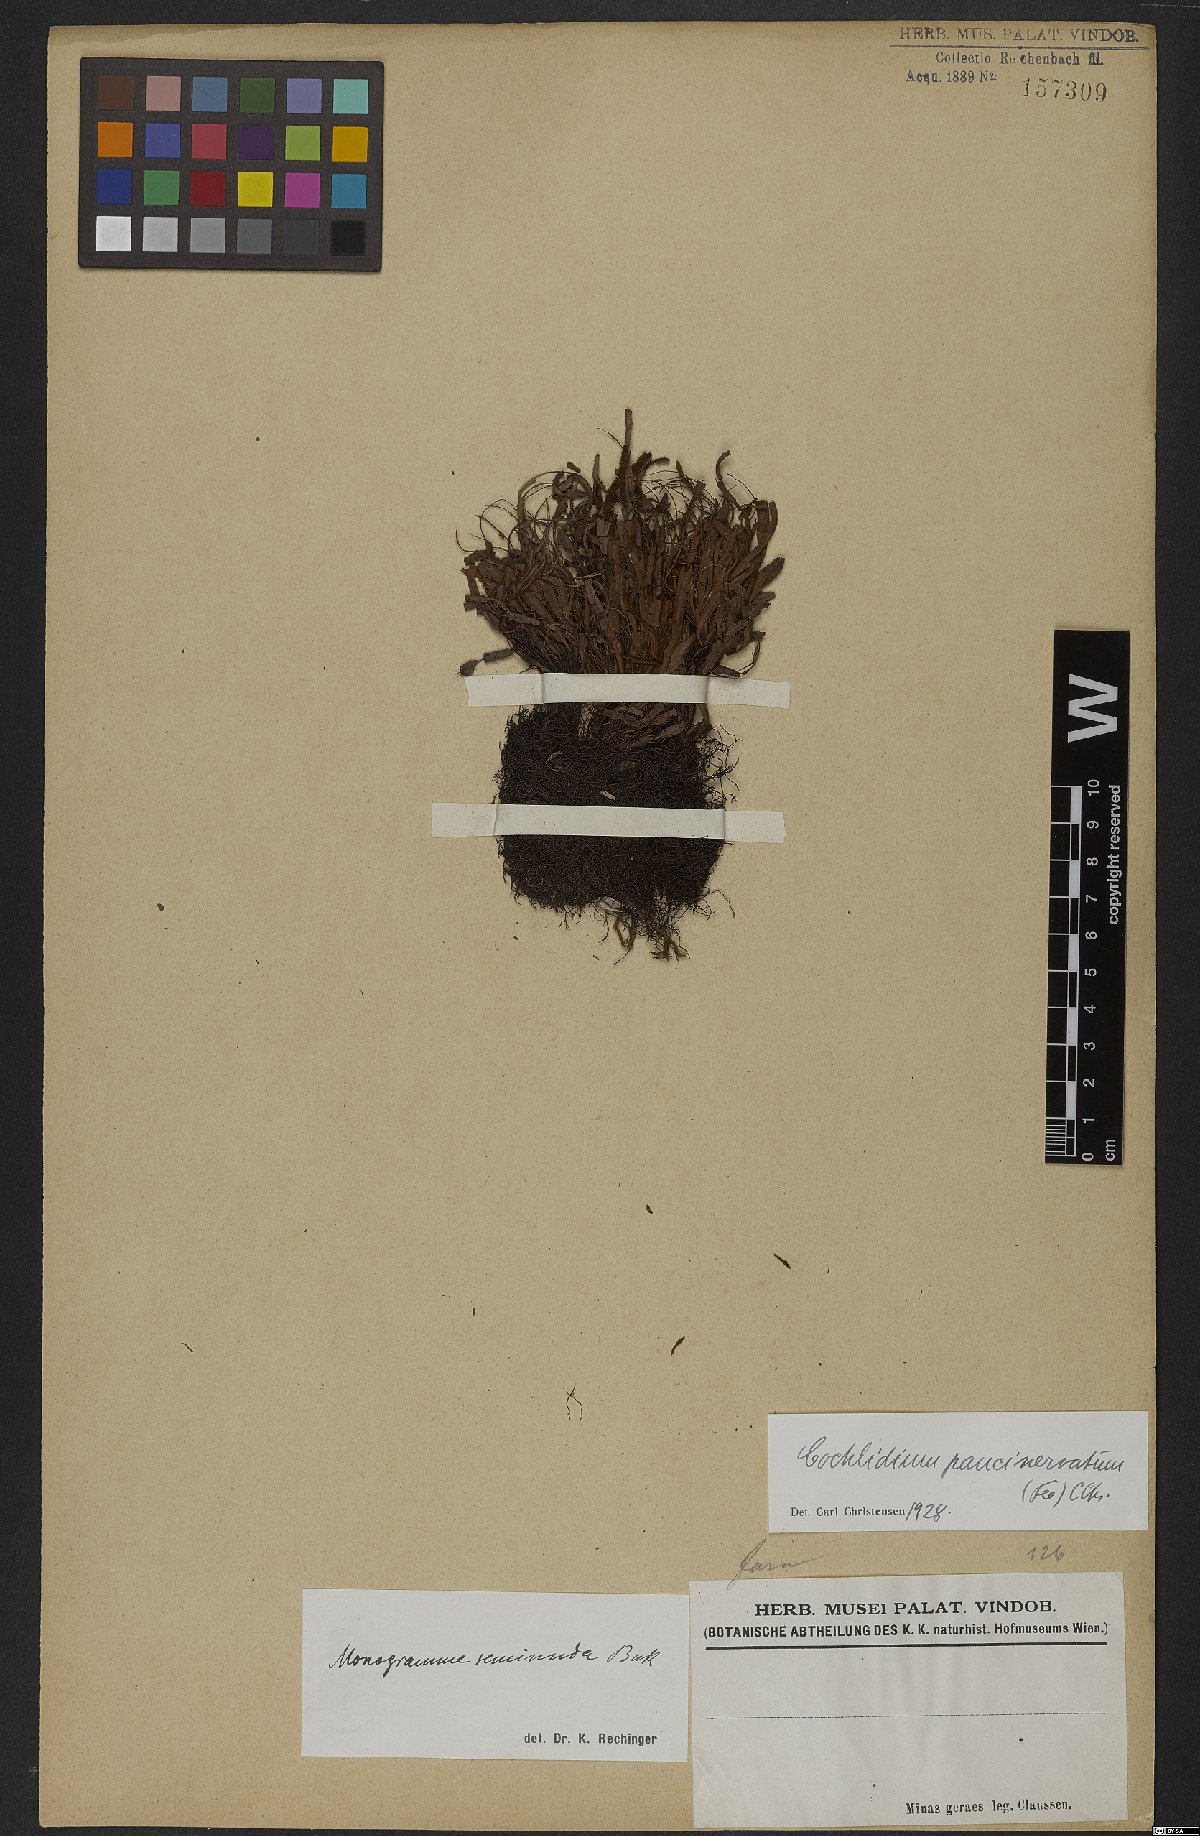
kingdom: Plantae
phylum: Tracheophyta
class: Polypodiopsida
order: Polypodiales
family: Polypodiaceae
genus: Cochlidium
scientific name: Cochlidium punctatum
